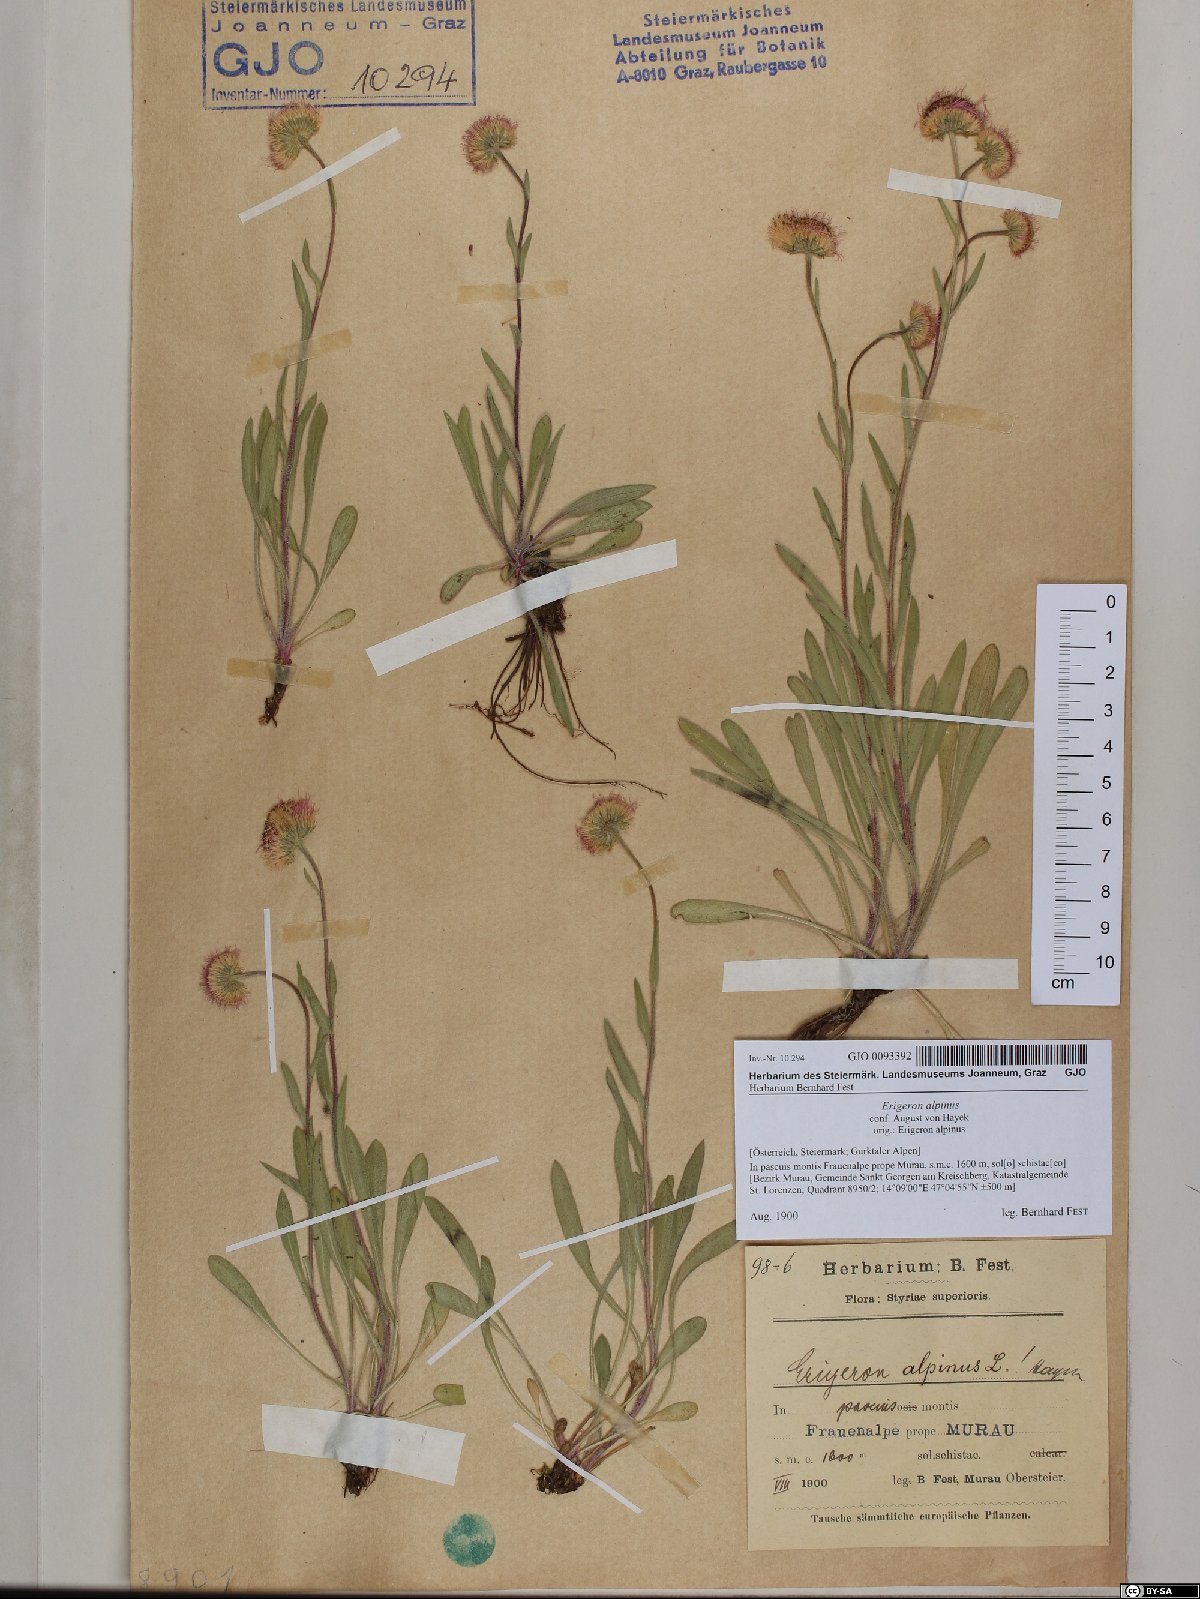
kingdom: Plantae
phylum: Tracheophyta
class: Magnoliopsida
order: Asterales
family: Asteraceae
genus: Erigeron
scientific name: Erigeron alpinus
